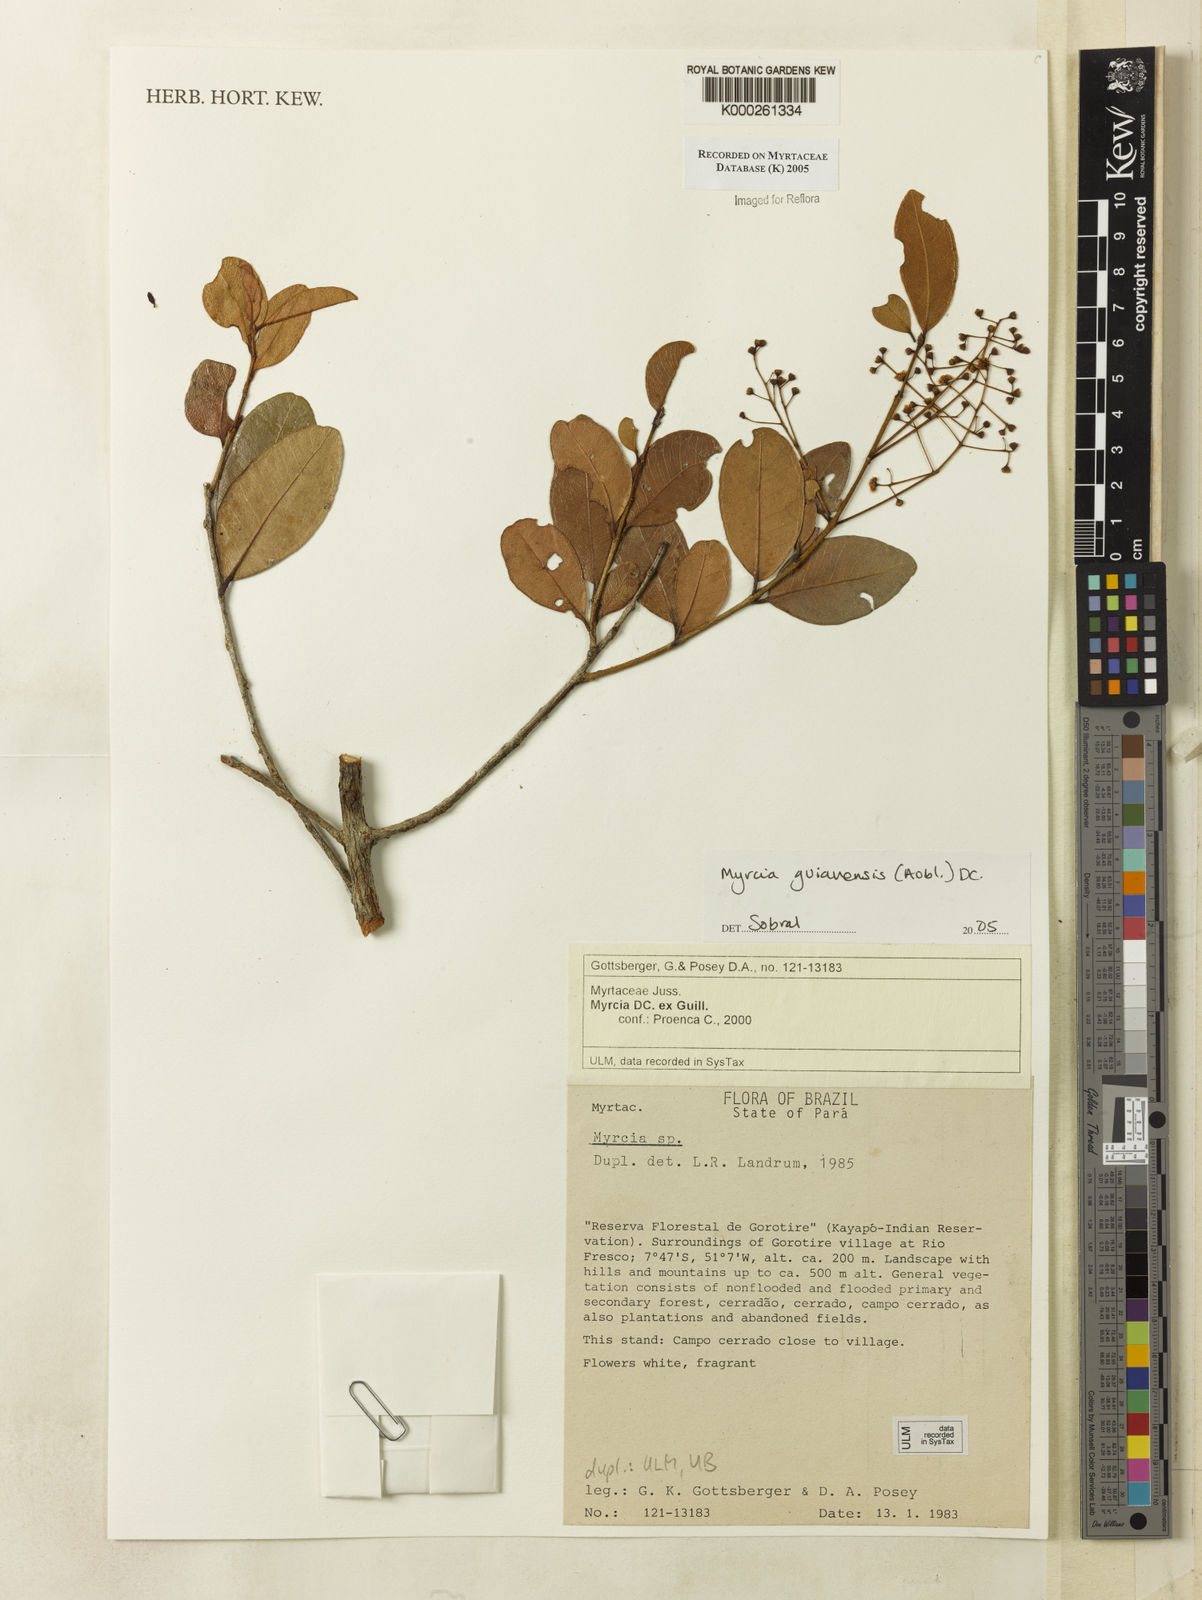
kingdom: Plantae
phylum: Tracheophyta
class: Magnoliopsida
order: Myrtales
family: Myrtaceae
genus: Myrcia
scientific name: Myrcia guianensis
